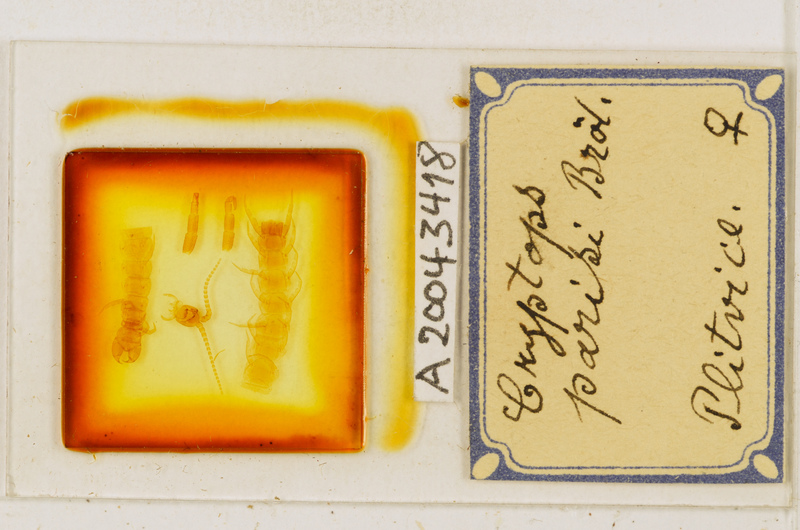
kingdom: Animalia
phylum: Arthropoda
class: Chilopoda
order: Scolopendromorpha
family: Cryptopidae
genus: Cryptops
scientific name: Cryptops parisi
